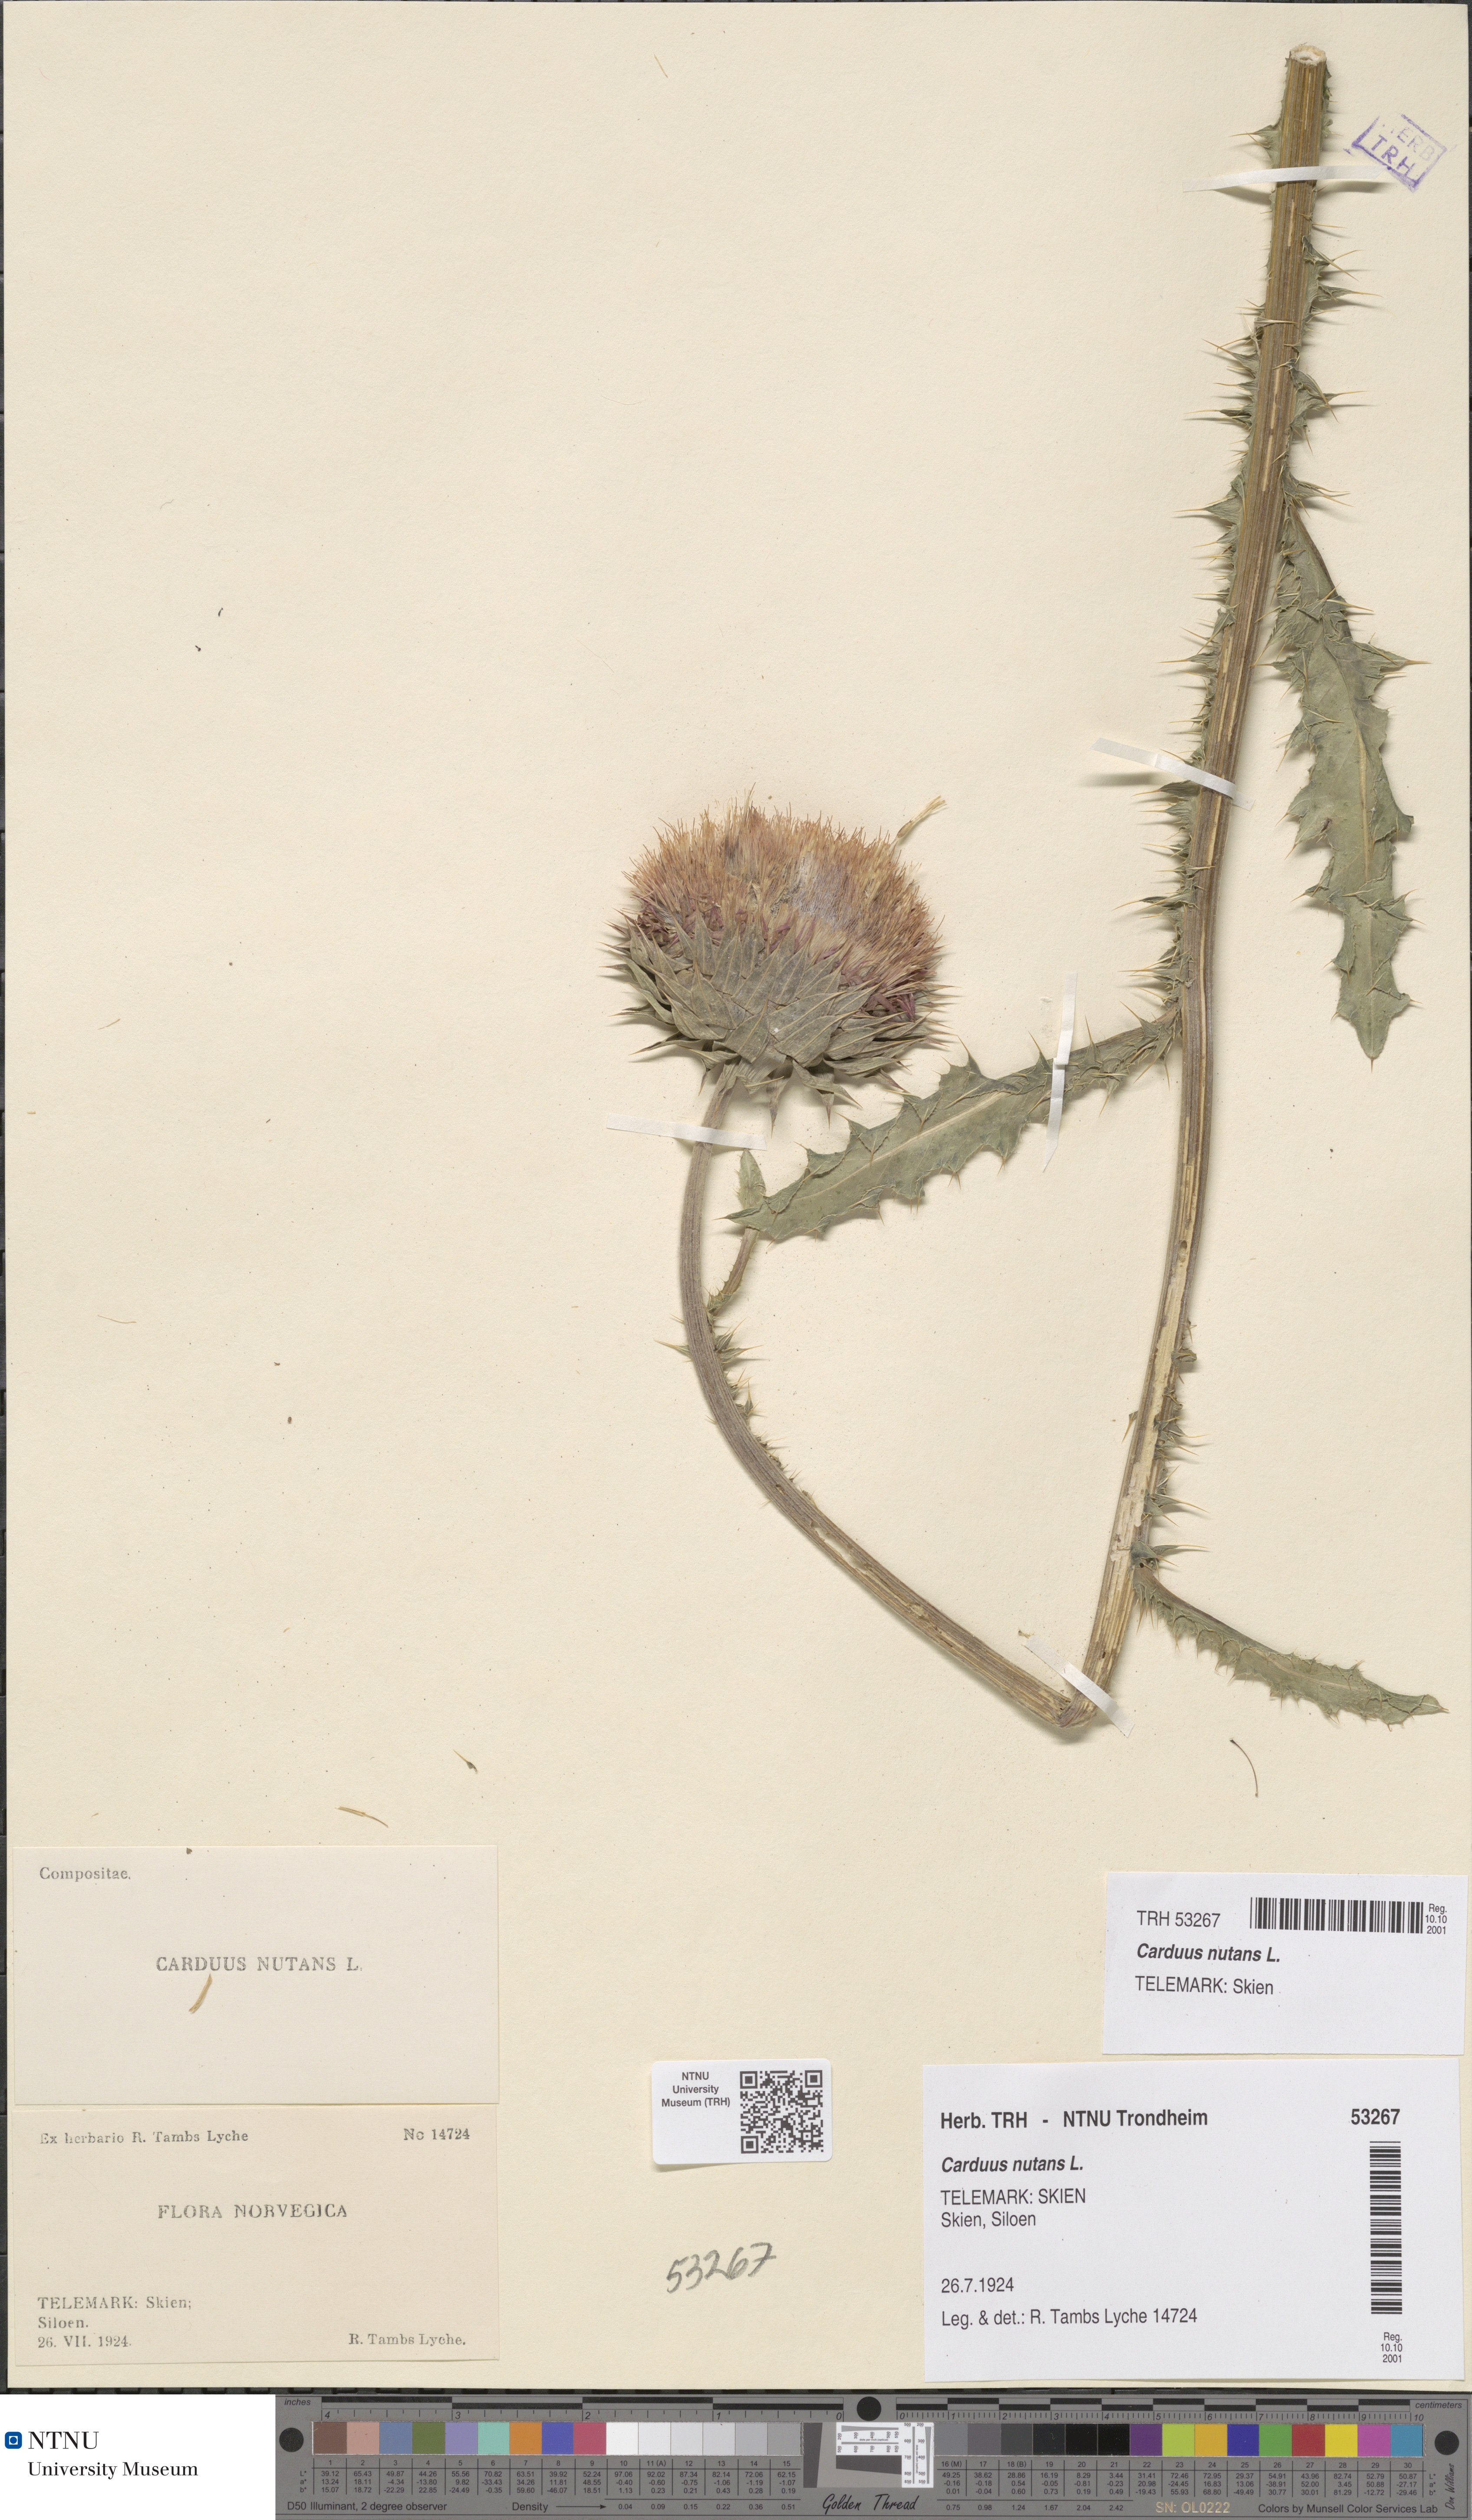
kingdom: Plantae
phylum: Tracheophyta
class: Magnoliopsida
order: Asterales
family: Asteraceae
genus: Carduus
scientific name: Carduus nutans
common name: Musk thistle
